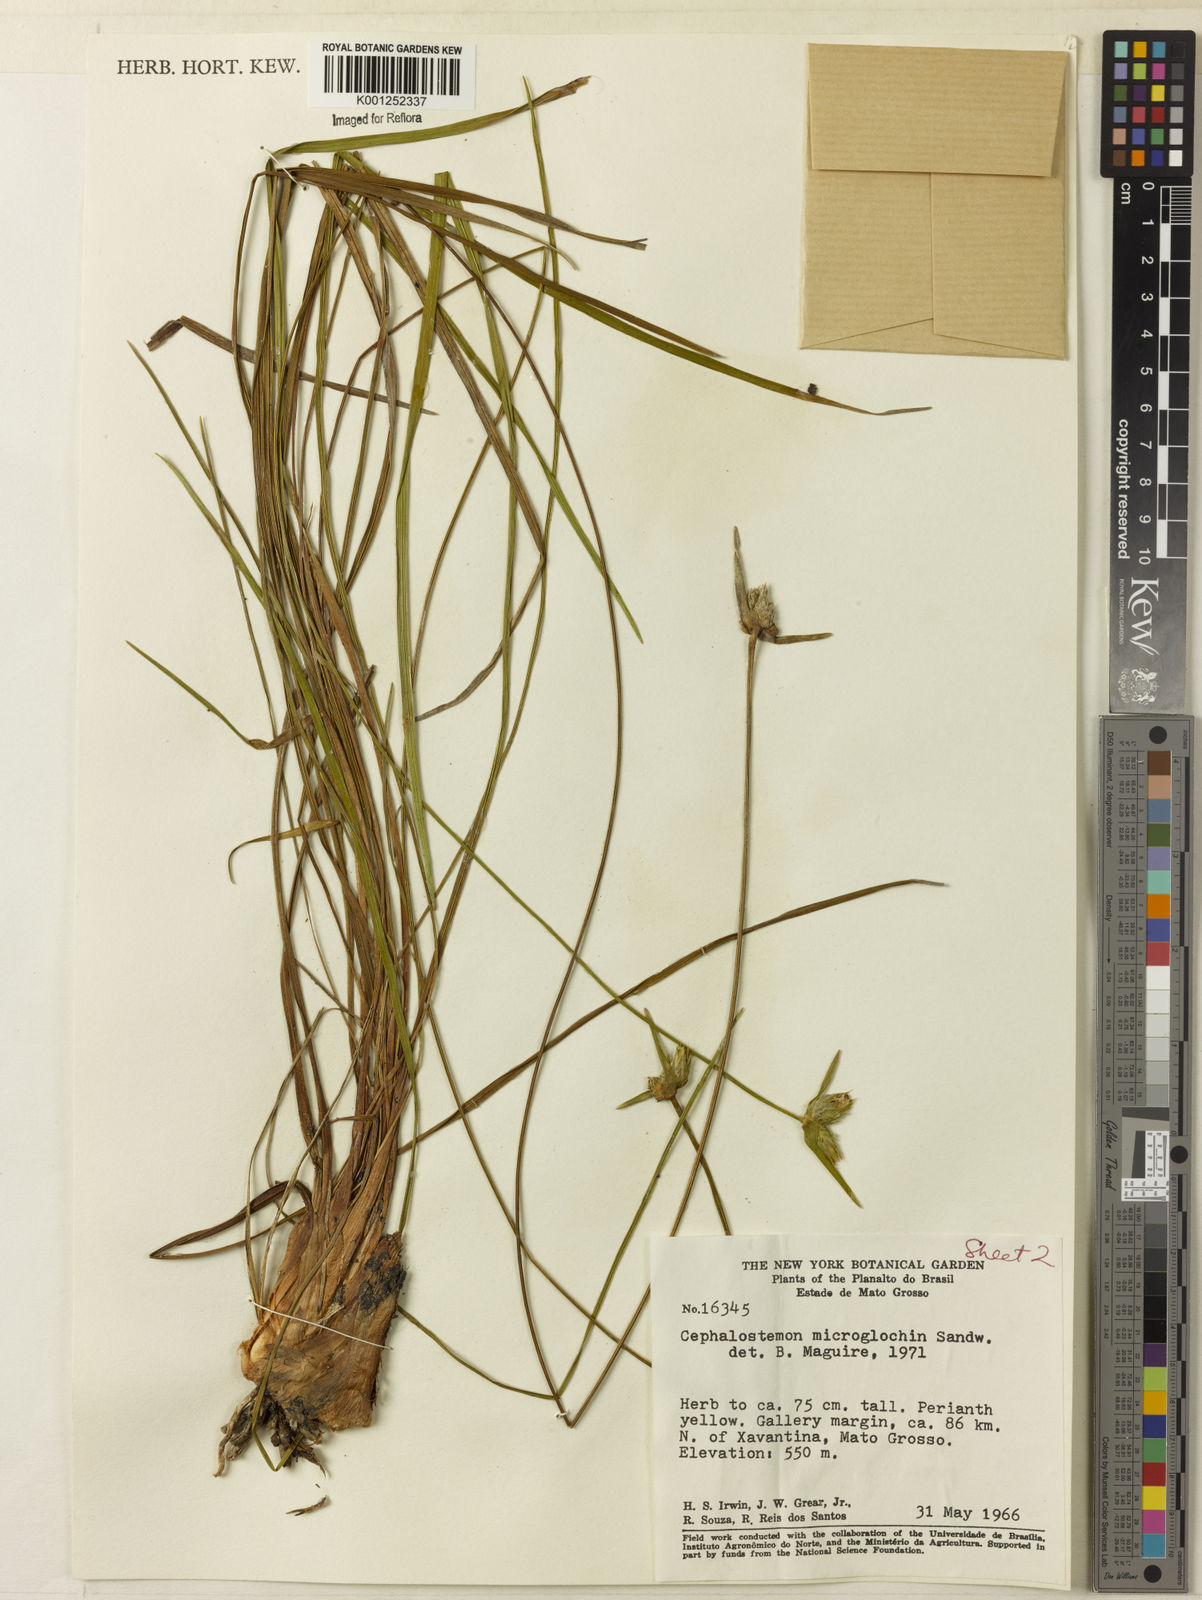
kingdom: Plantae
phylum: Tracheophyta
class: Liliopsida
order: Poales
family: Rapateaceae
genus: Cephalostemon
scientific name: Cephalostemon microglochin
